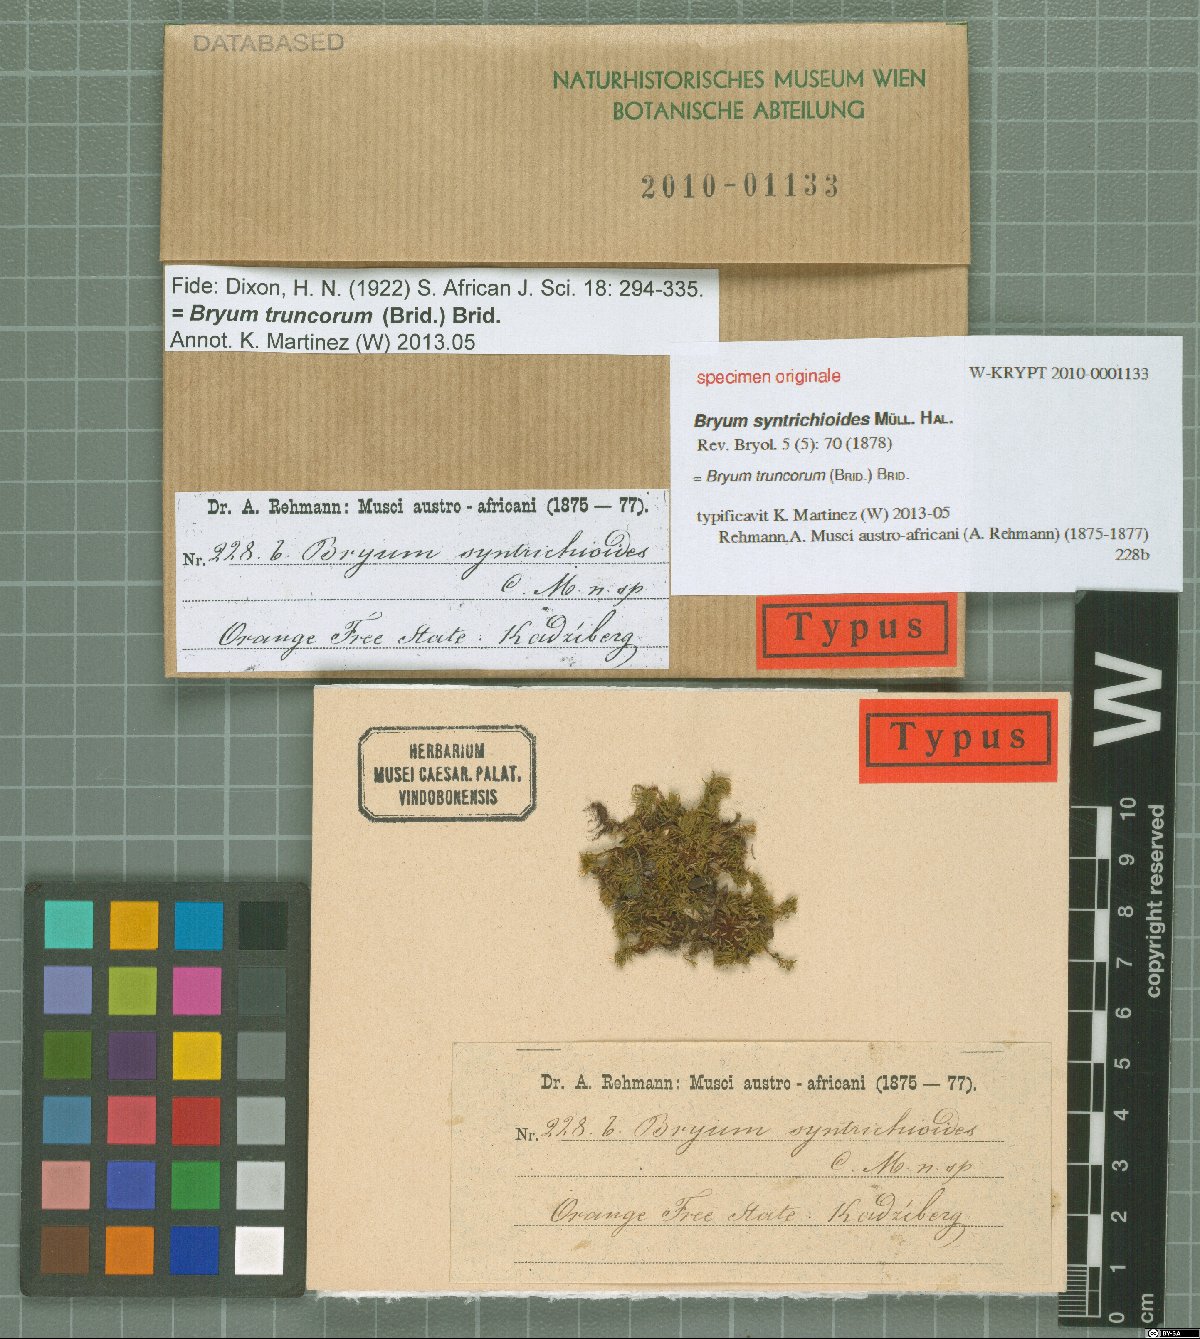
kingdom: Plantae
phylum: Bryophyta
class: Bryopsida
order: Bryales
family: Bryaceae
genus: Rosulabryum
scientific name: Rosulabryum billarderii
